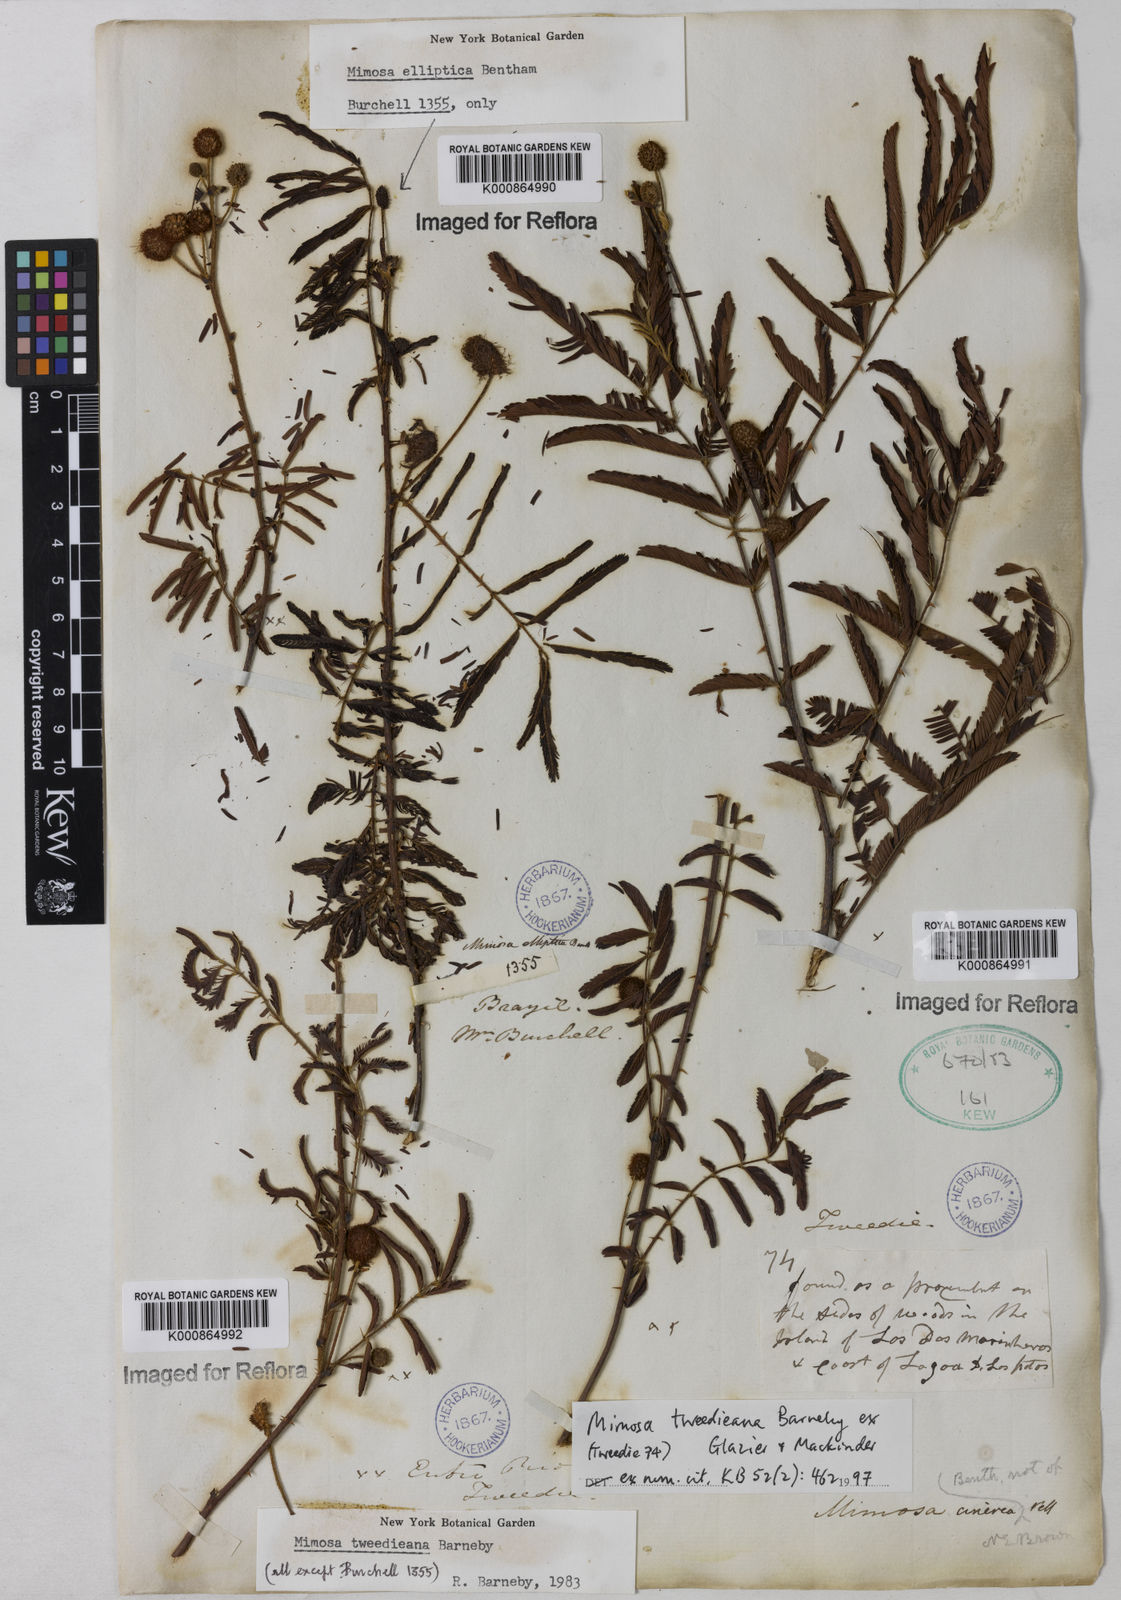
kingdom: Plantae
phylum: Tracheophyta
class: Magnoliopsida
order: Fabales
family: Fabaceae
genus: Mimosa
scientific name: Mimosa tweedieana
